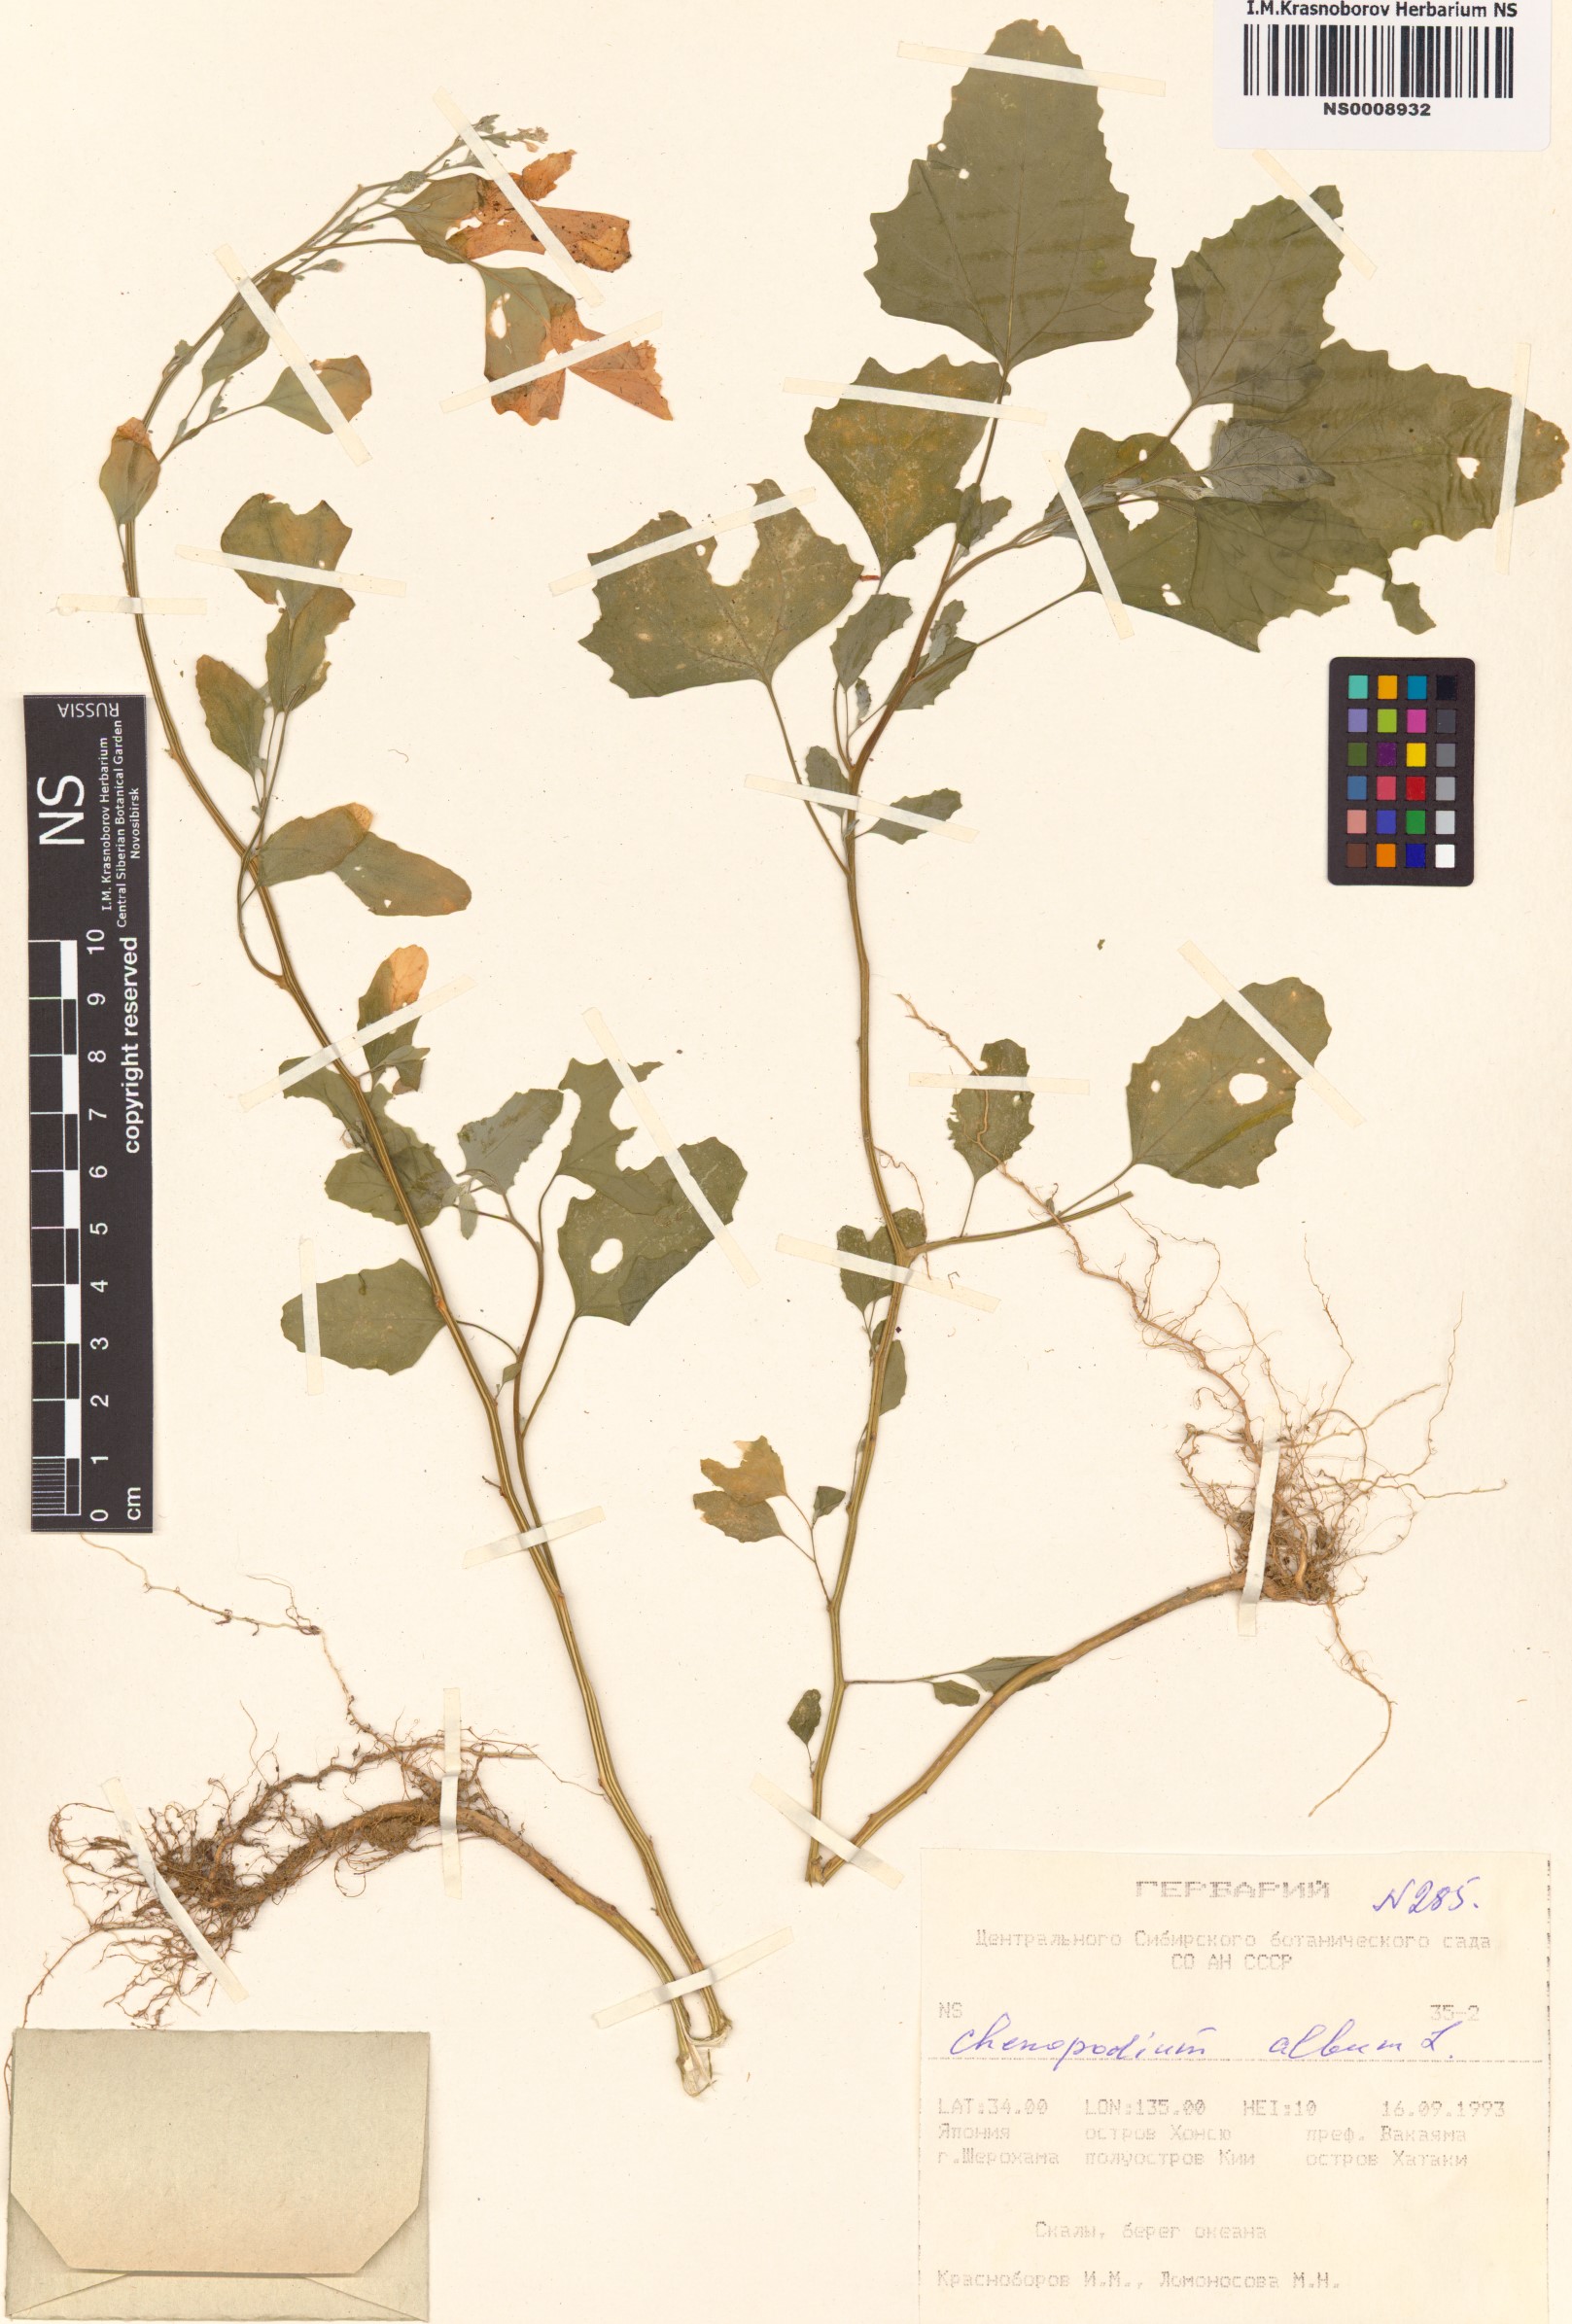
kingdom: Plantae
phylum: Tracheophyta
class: Magnoliopsida
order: Caryophyllales
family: Amaranthaceae
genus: Chenopodium
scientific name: Chenopodium album
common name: Fat-hen
